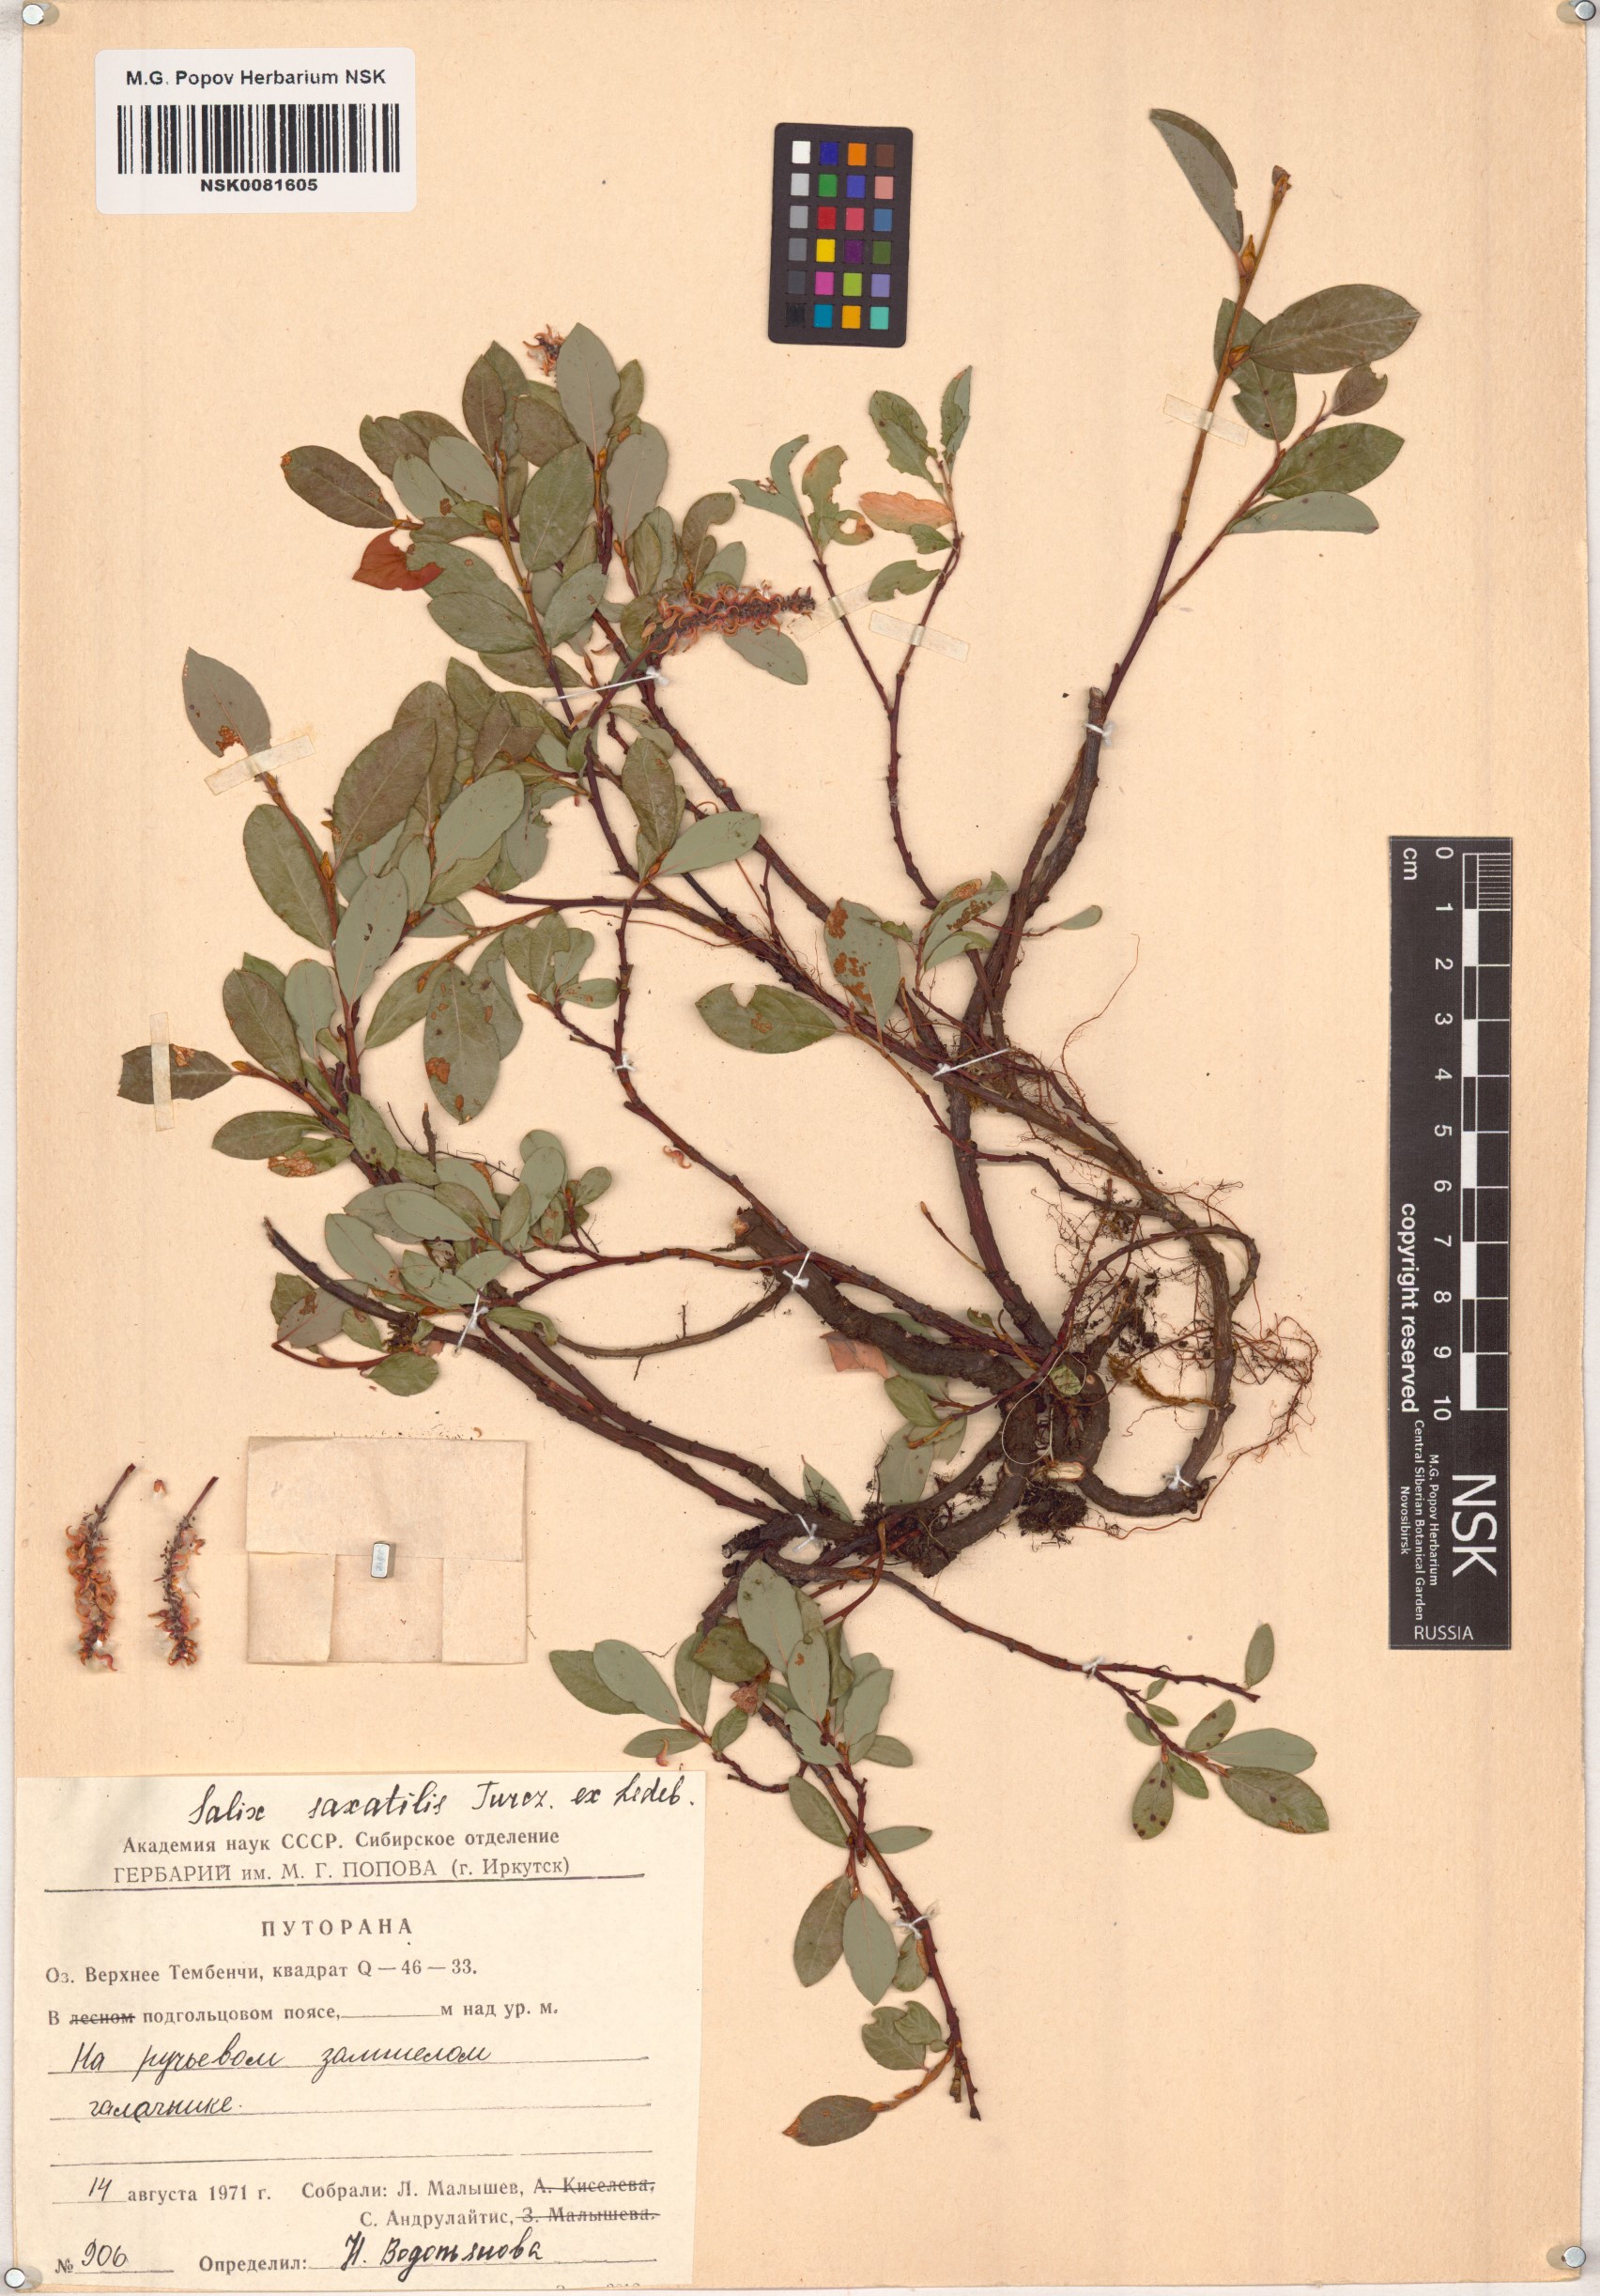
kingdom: Plantae
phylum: Tracheophyta
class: Magnoliopsida
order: Malpighiales
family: Salicaceae
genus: Salix
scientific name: Salix saxatilis
